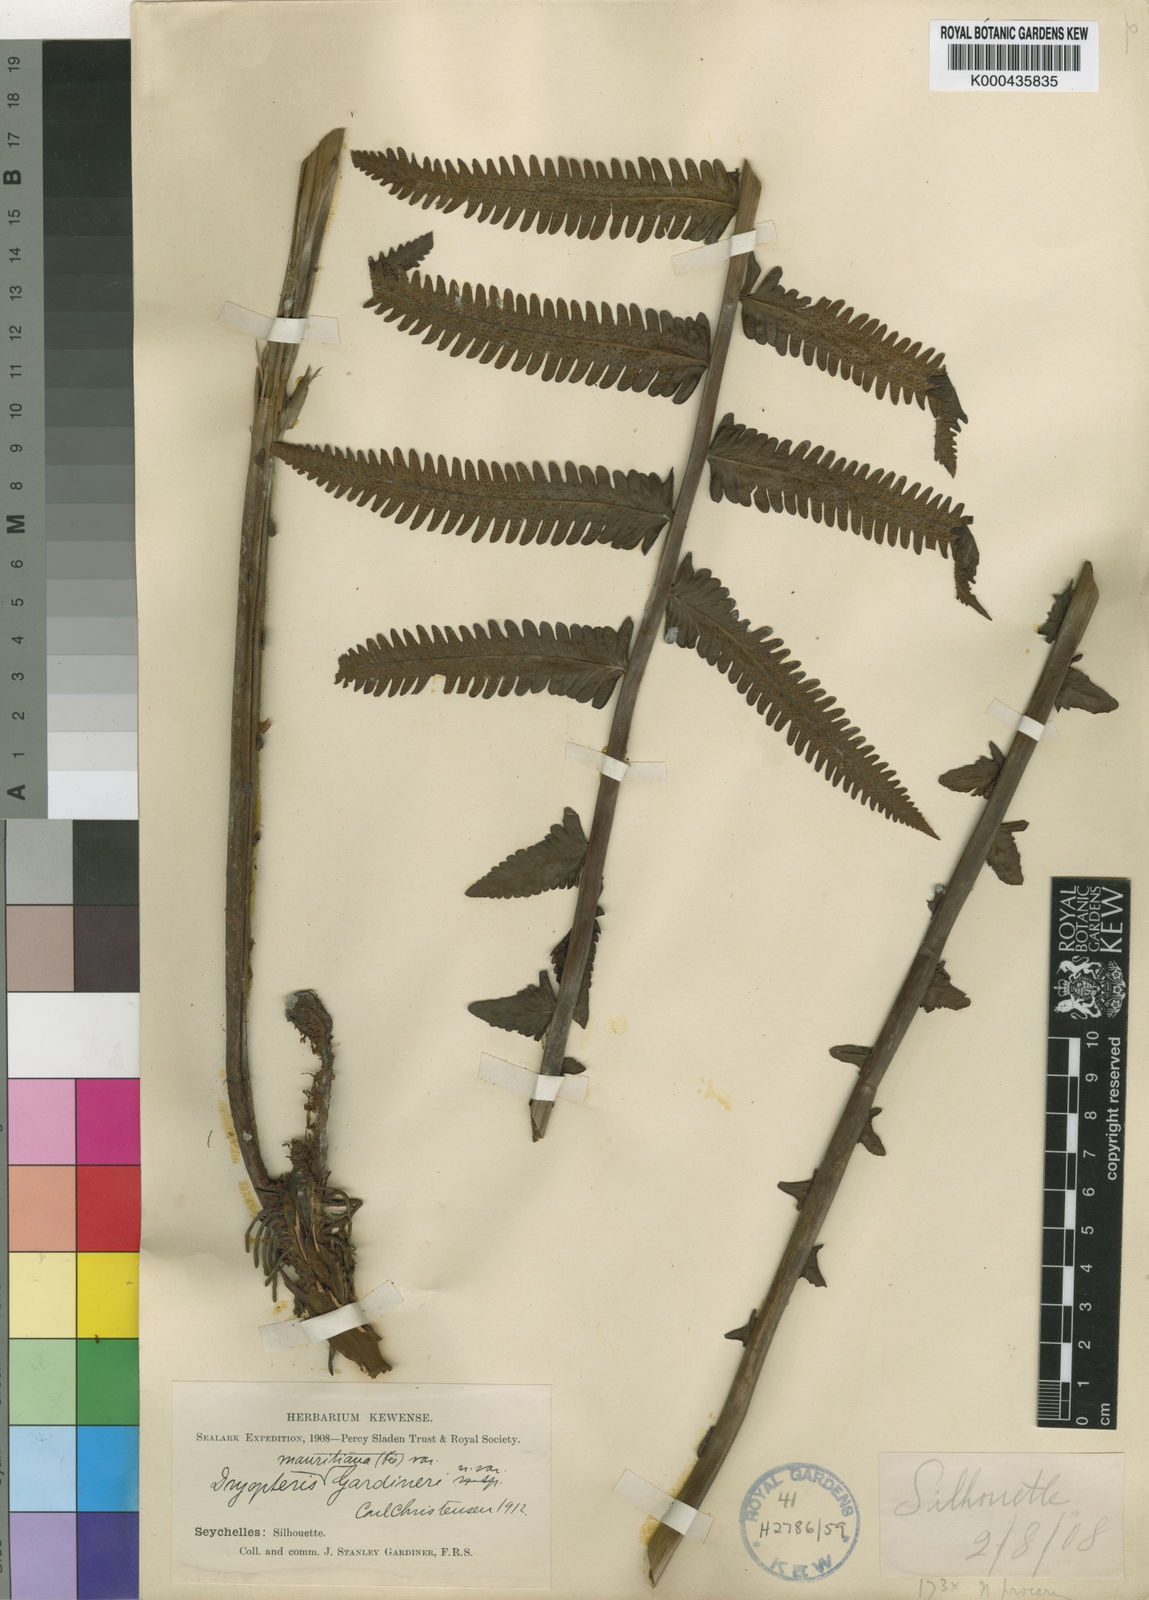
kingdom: Plantae
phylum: Tracheophyta
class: Polypodiopsida
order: Polypodiales
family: Thelypteridaceae
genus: Sphaerostephanos
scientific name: Sphaerostephanos subtruncatus
